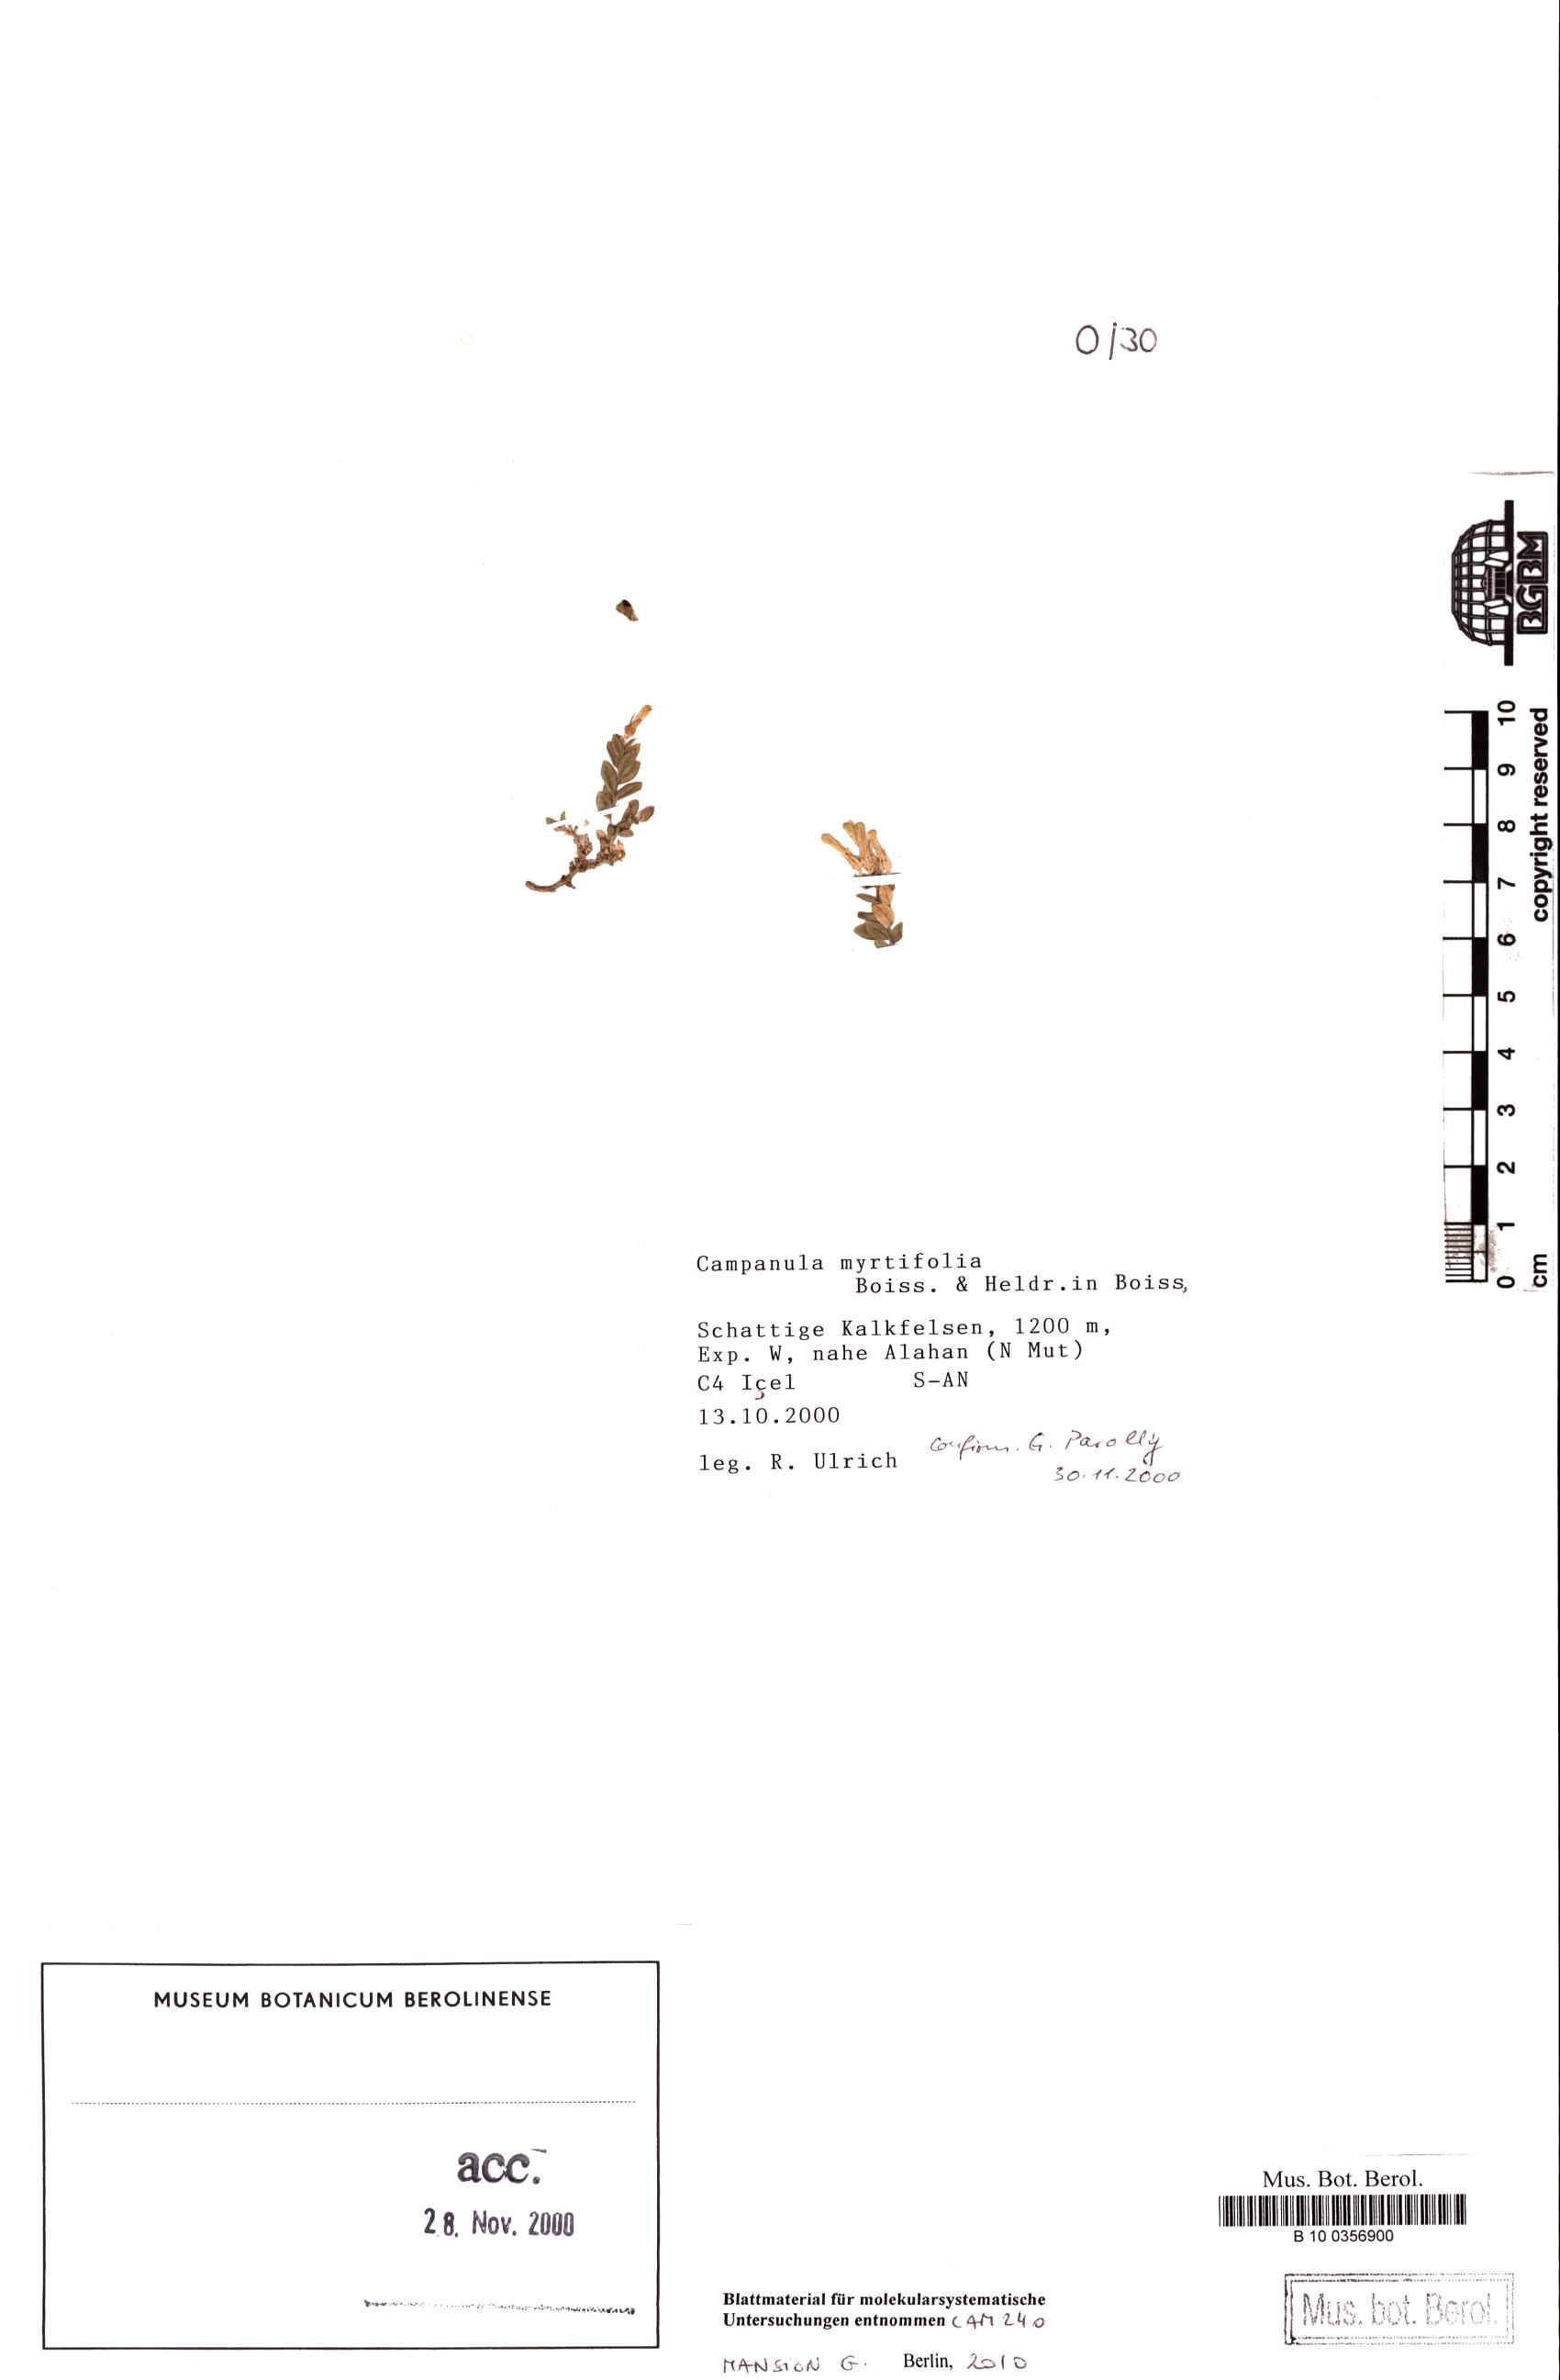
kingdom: Plantae
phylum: Tracheophyta
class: Magnoliopsida
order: Asterales
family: Campanulaceae
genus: Campanula
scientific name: Campanula myrtifolia
